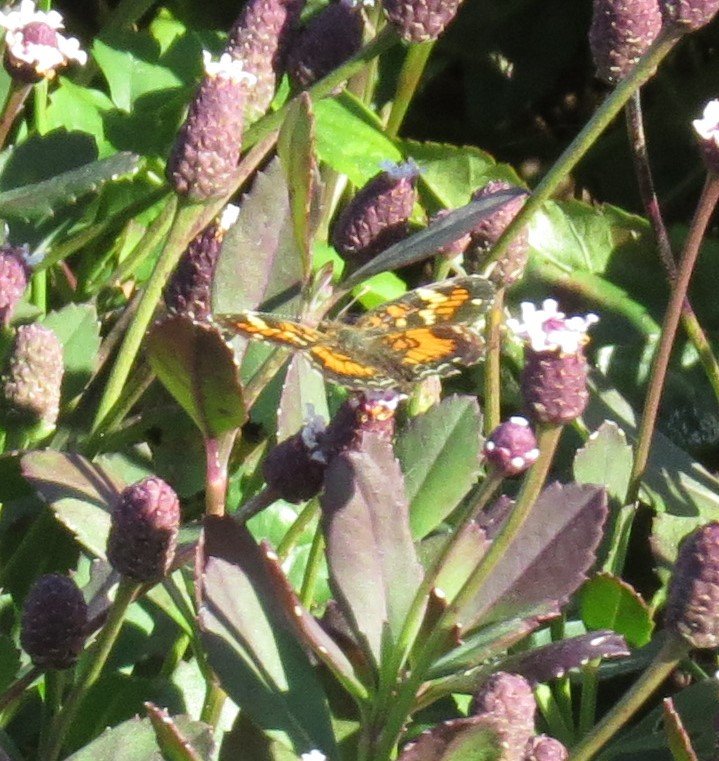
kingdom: Animalia
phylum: Arthropoda
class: Insecta
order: Lepidoptera
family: Nymphalidae
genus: Phyciodes
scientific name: Phyciodes phaon
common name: Phaon Crescent
